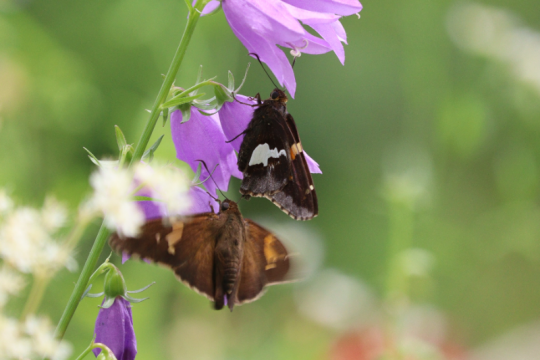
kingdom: Animalia
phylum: Arthropoda
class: Insecta
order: Lepidoptera
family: Hesperiidae
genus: Epargyreus
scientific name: Epargyreus clarus
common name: Silver-spotted Skipper
